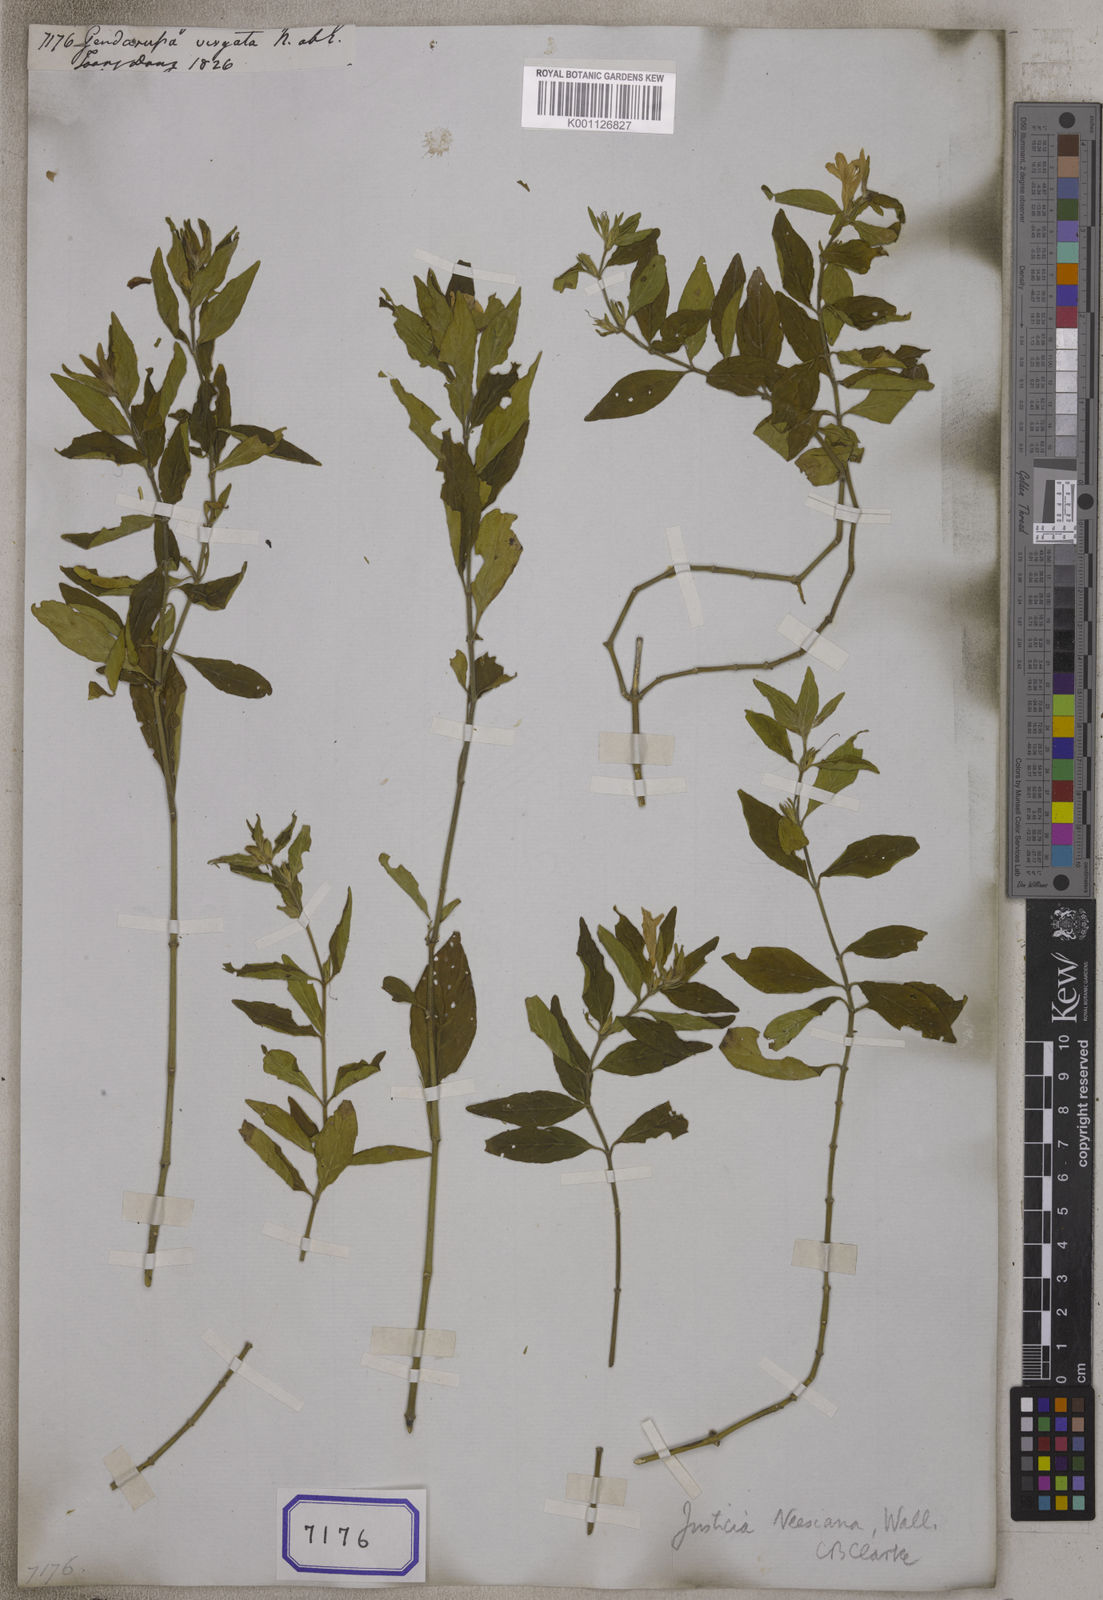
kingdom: Plantae
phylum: Tracheophyta
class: Magnoliopsida
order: Lamiales
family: Acanthaceae
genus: Justicia
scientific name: Justicia virgata
